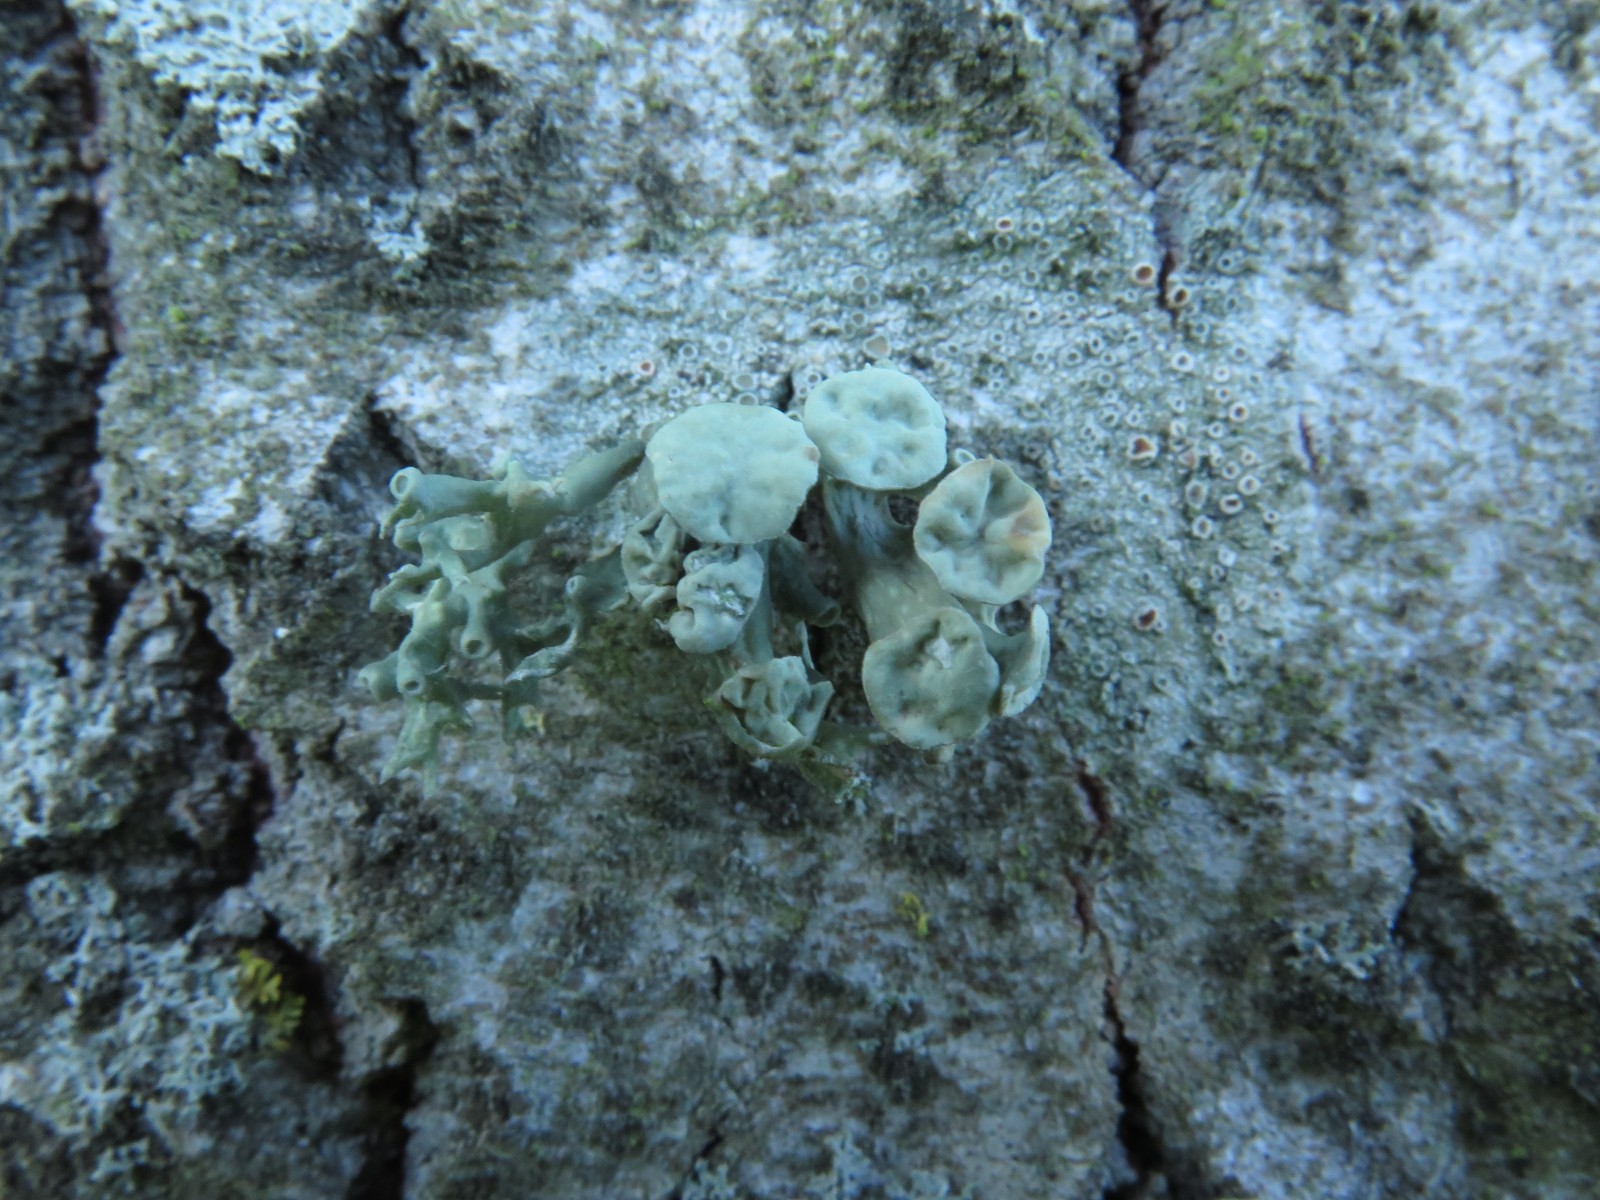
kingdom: Fungi
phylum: Ascomycota
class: Lecanoromycetes
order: Lecanorales
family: Ramalinaceae
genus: Ramalina
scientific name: Ramalina fastigiata
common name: tue-grenlav
